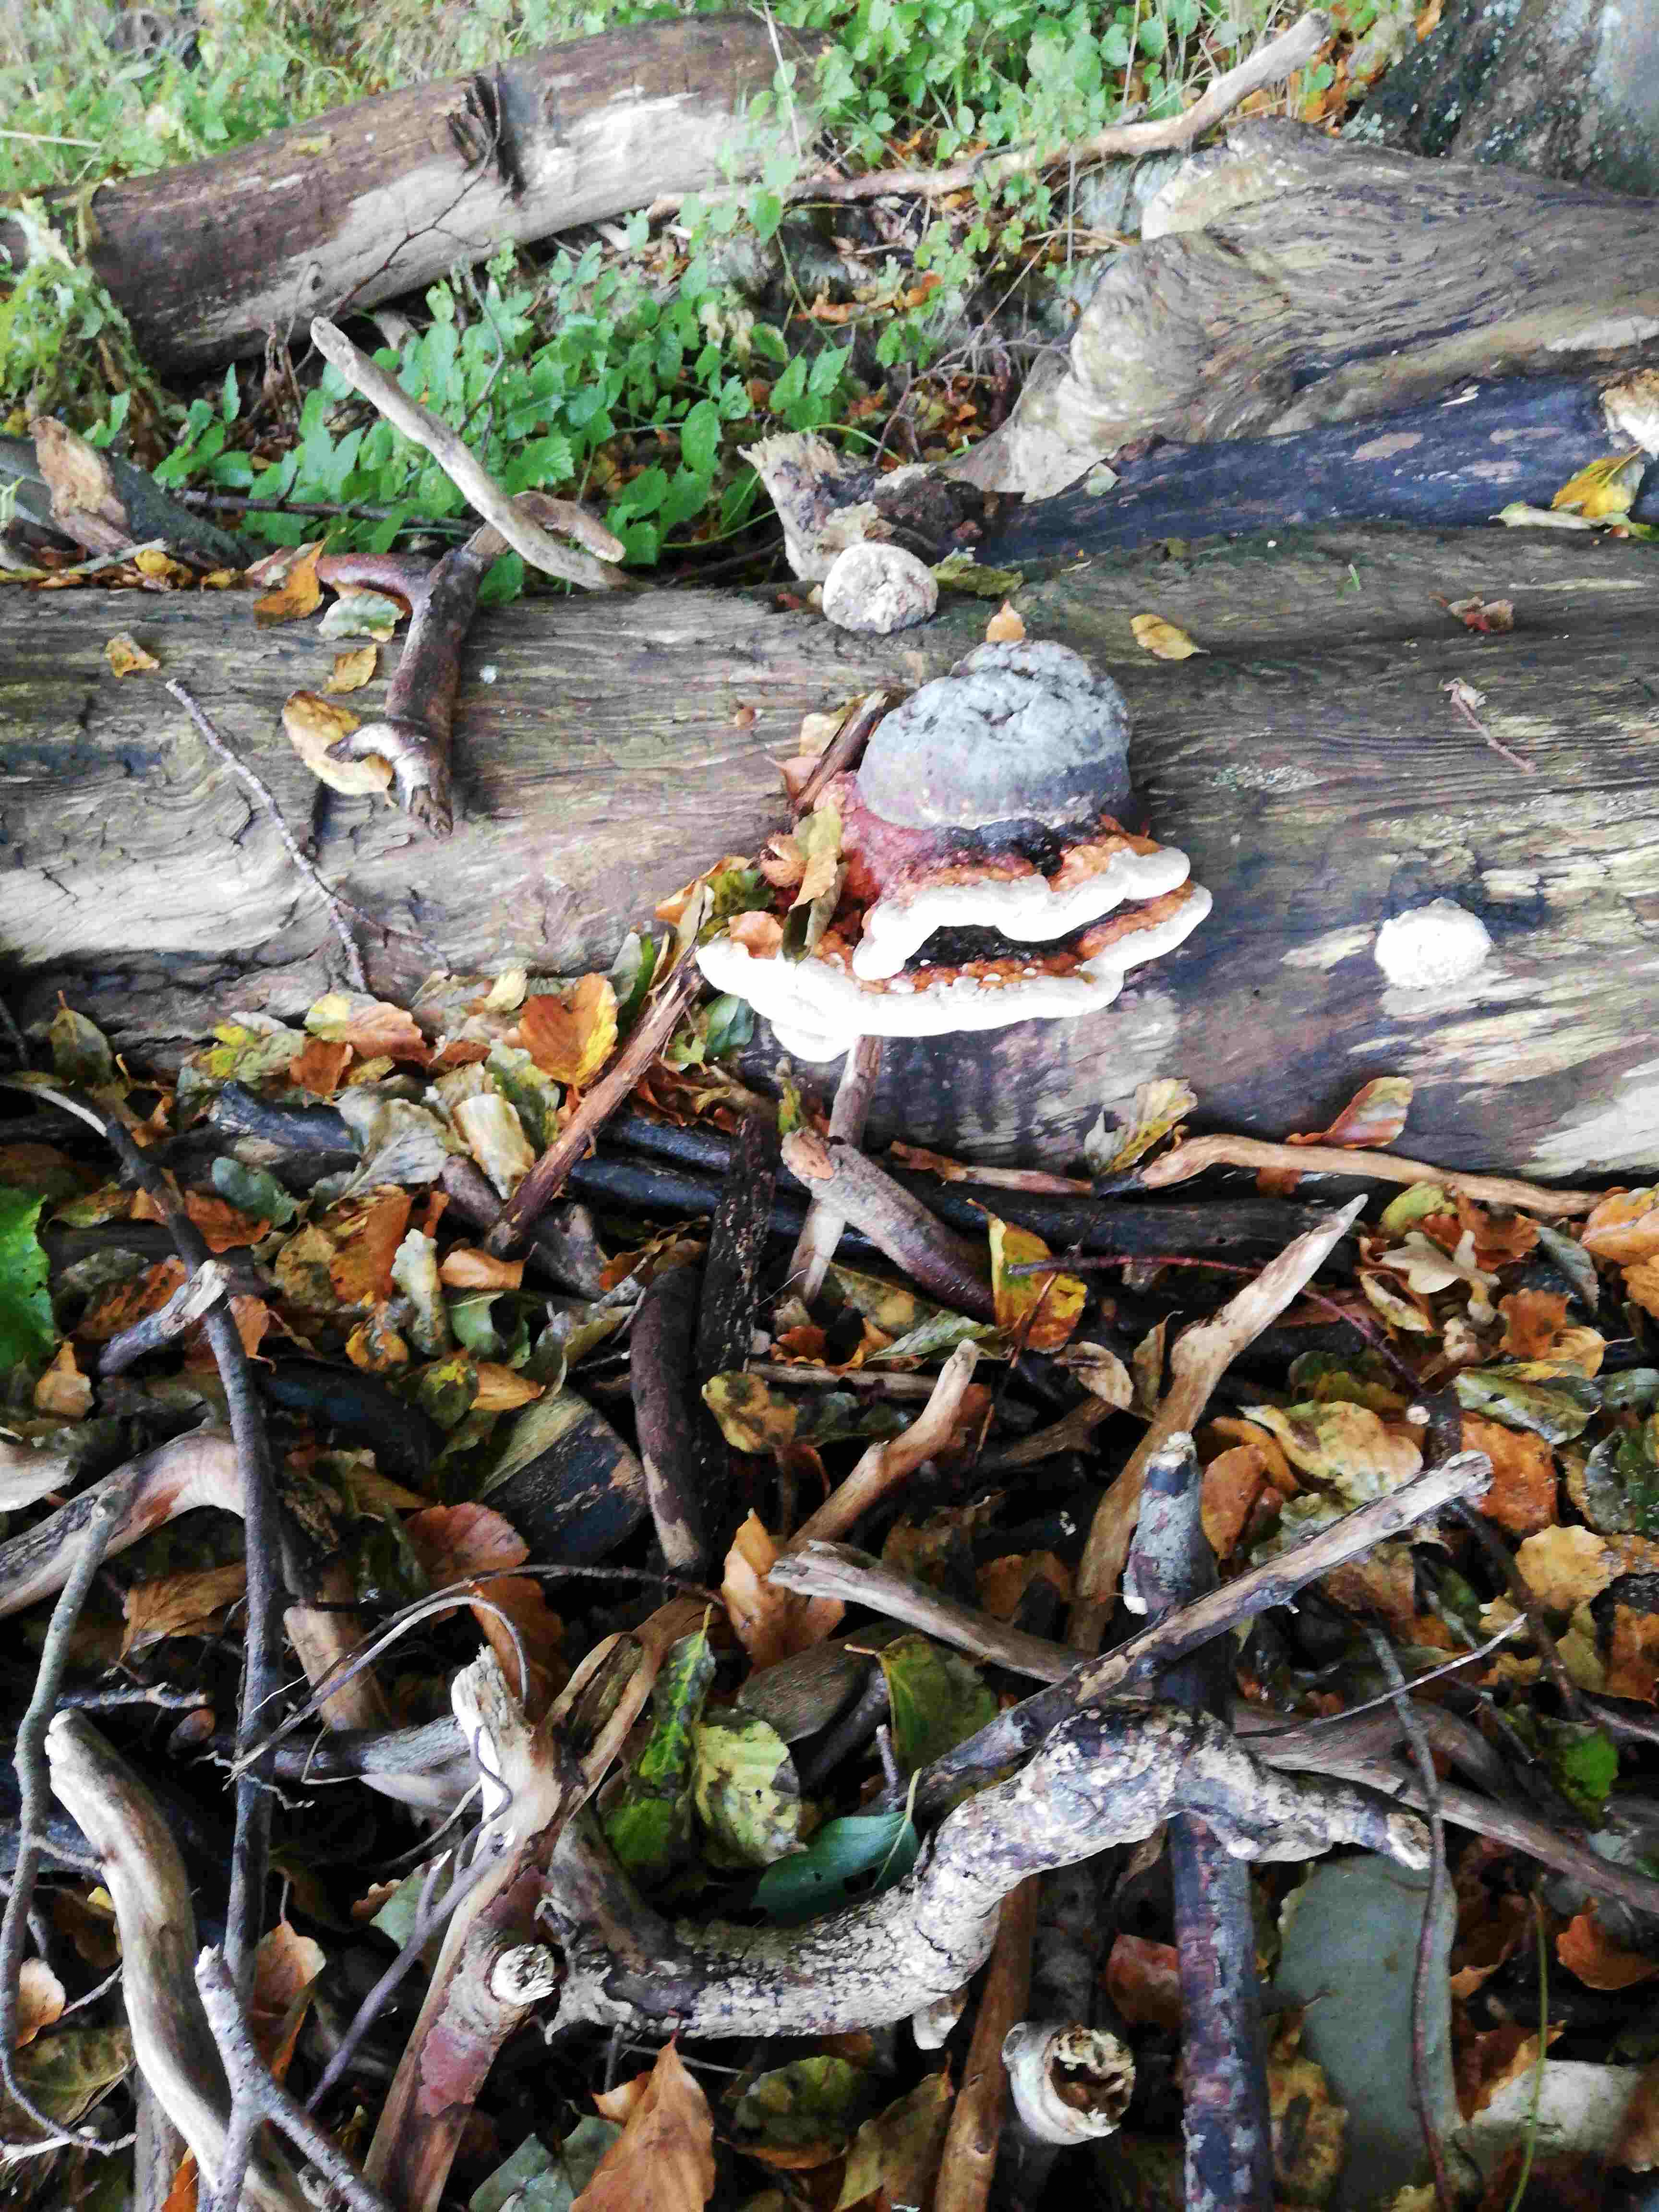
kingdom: Fungi
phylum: Basidiomycota
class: Agaricomycetes
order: Polyporales
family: Fomitopsidaceae
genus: Fomitopsis
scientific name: Fomitopsis pinicola
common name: randbæltet hovporesvamp
